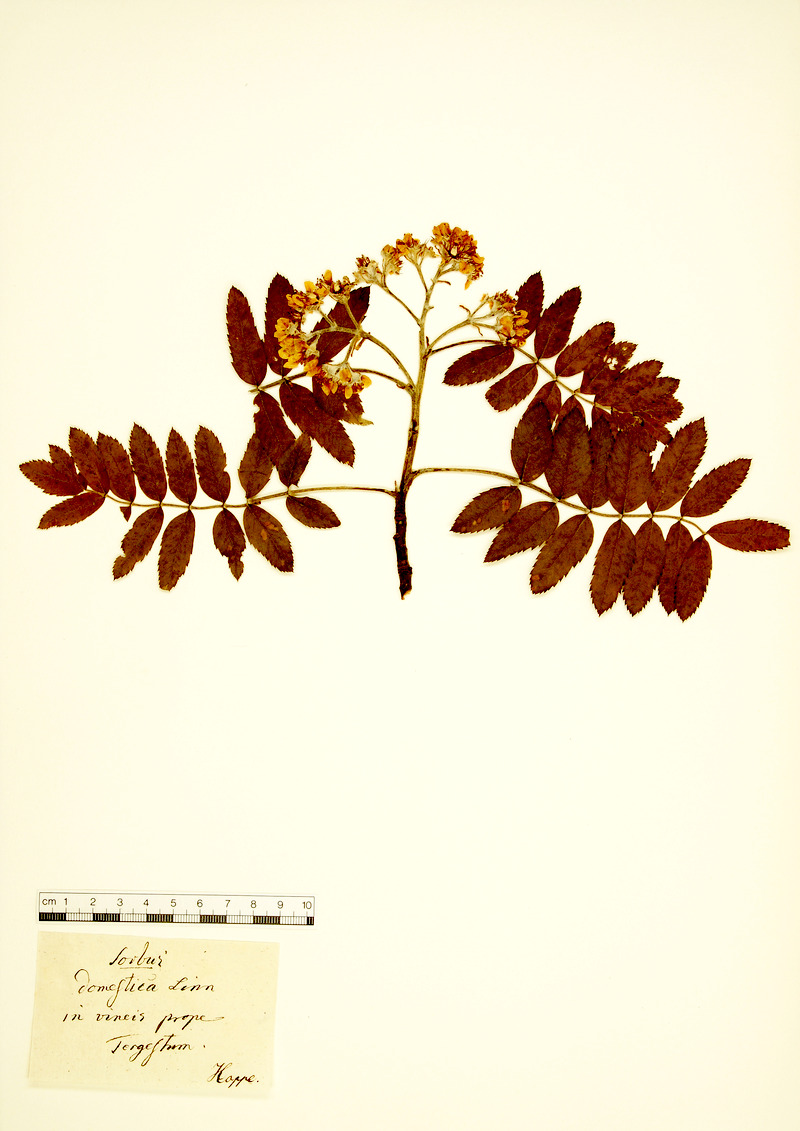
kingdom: Plantae
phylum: Tracheophyta
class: Magnoliopsida
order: Rosales
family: Rosaceae
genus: Cormus
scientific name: Cormus domestica
